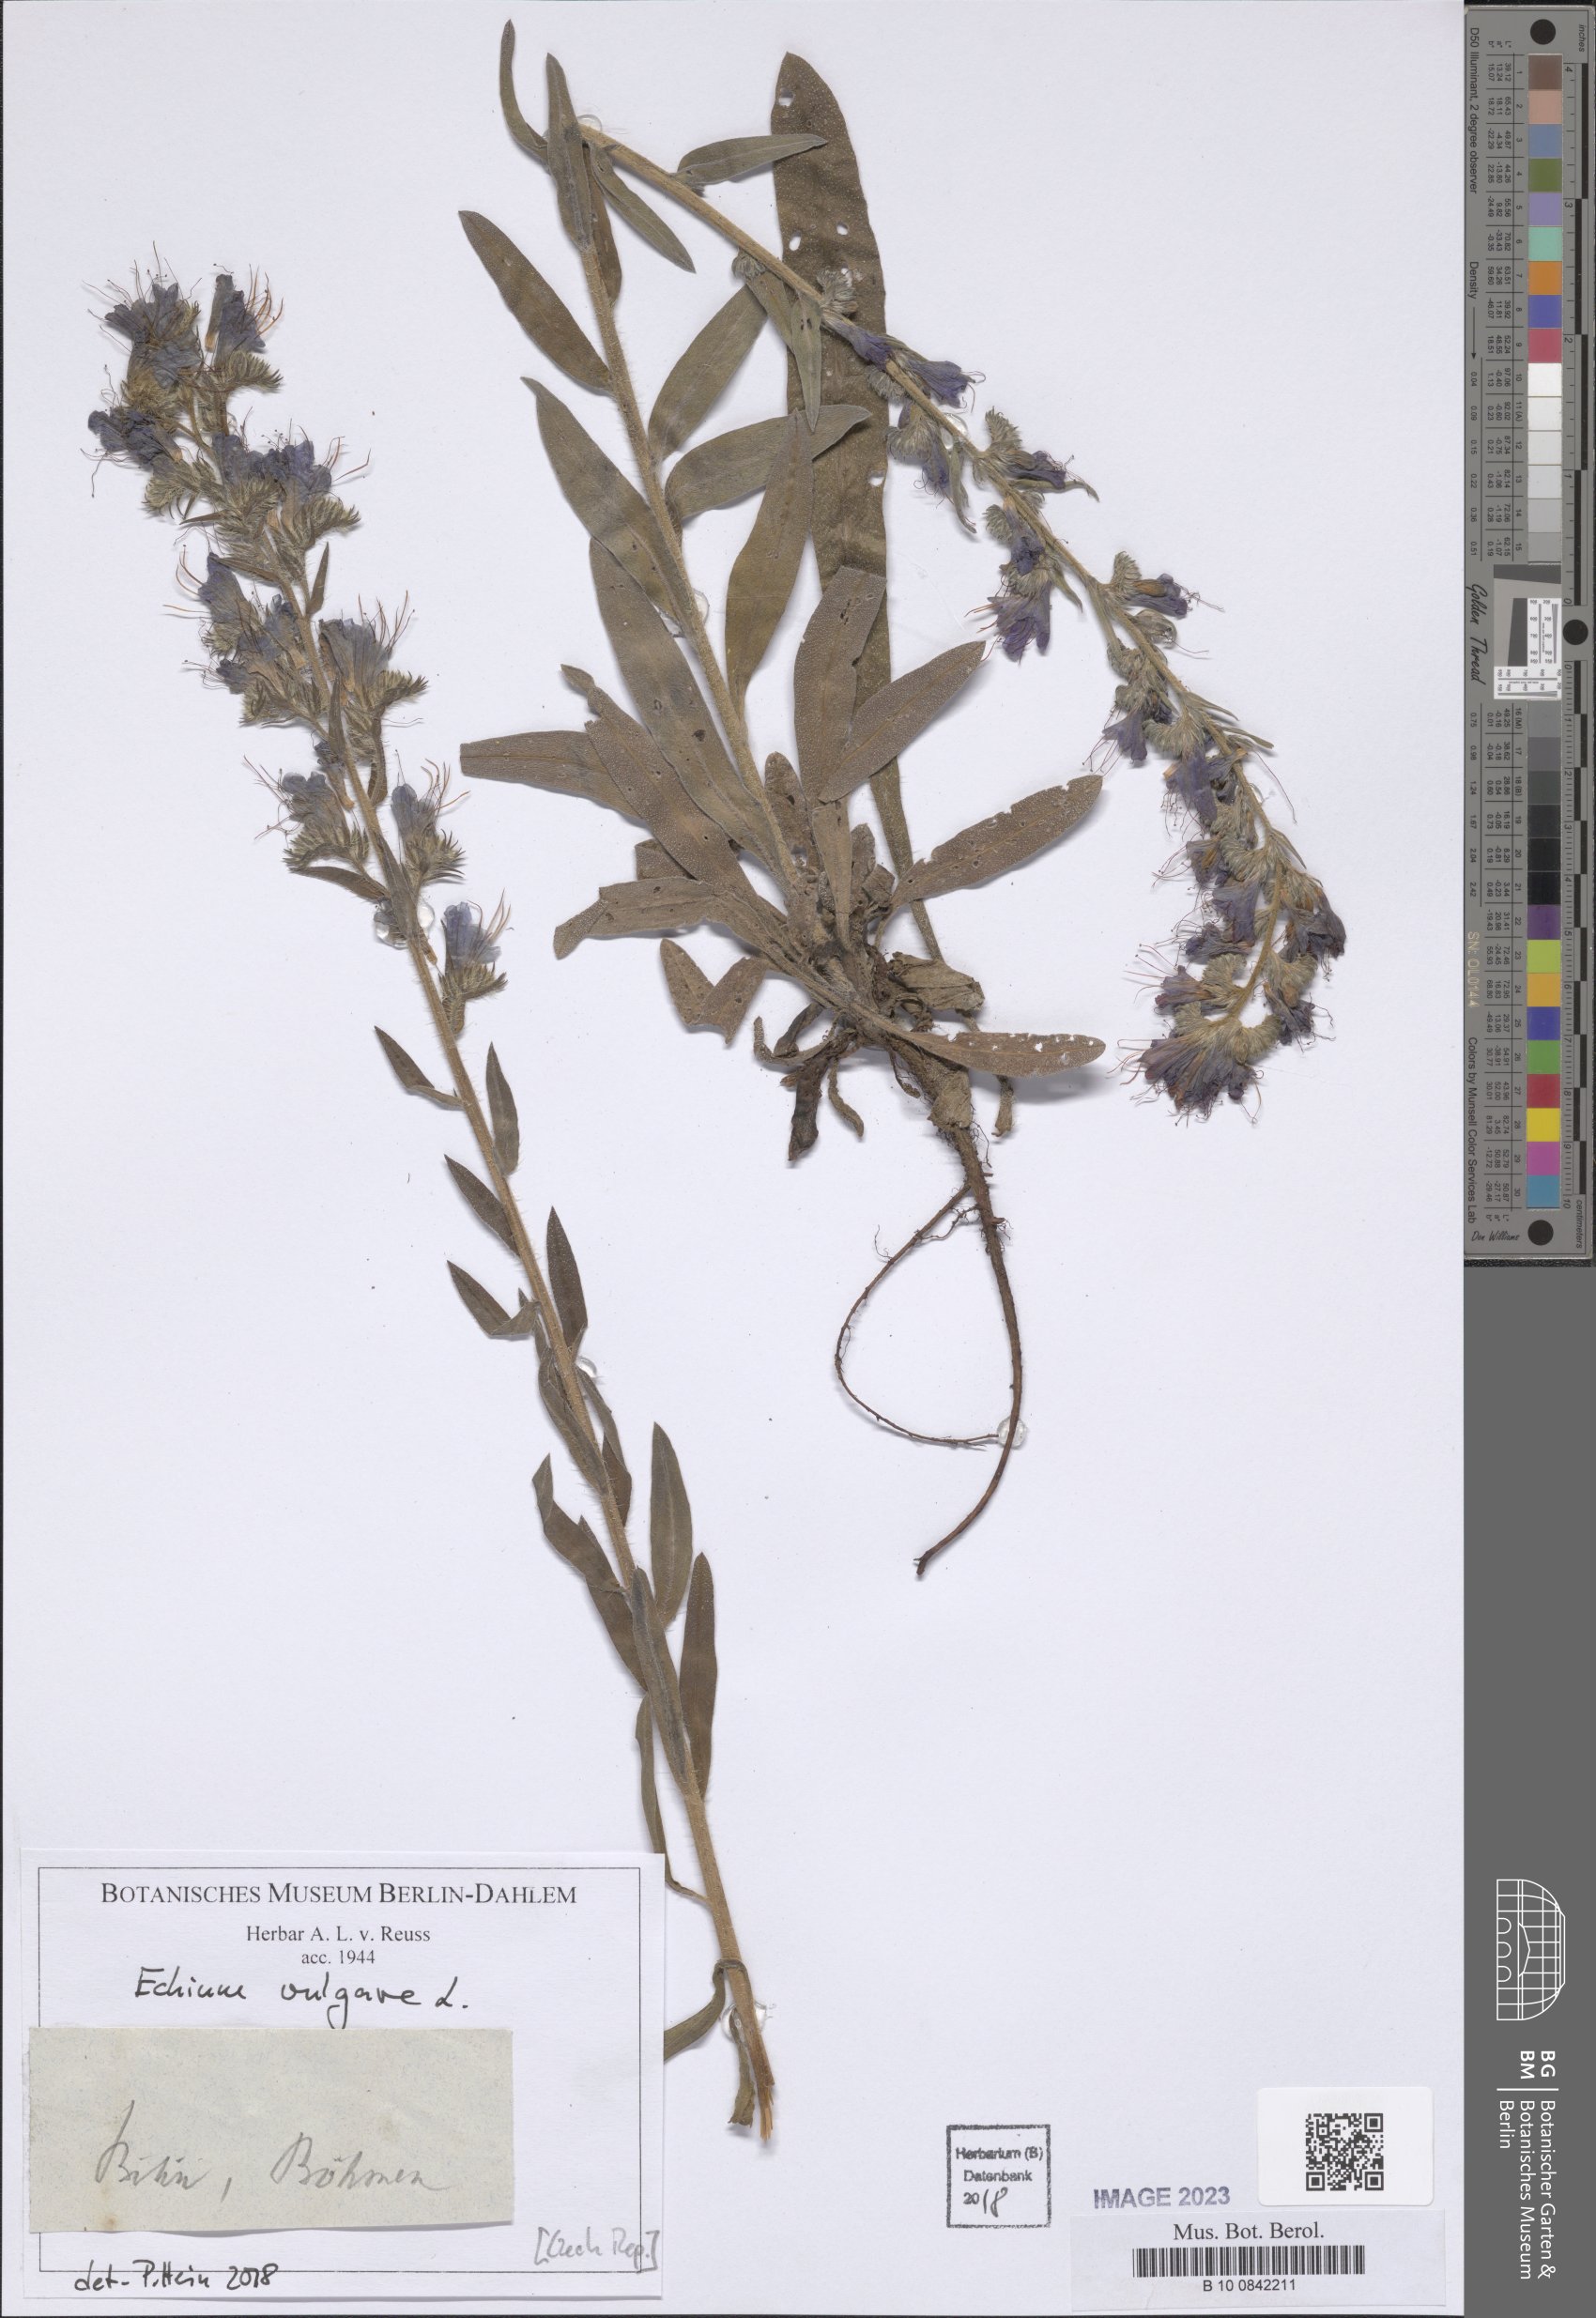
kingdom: Plantae
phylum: Tracheophyta
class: Magnoliopsida
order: Boraginales
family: Boraginaceae
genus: Echium
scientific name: Echium vulgare
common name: Common viper's bugloss
